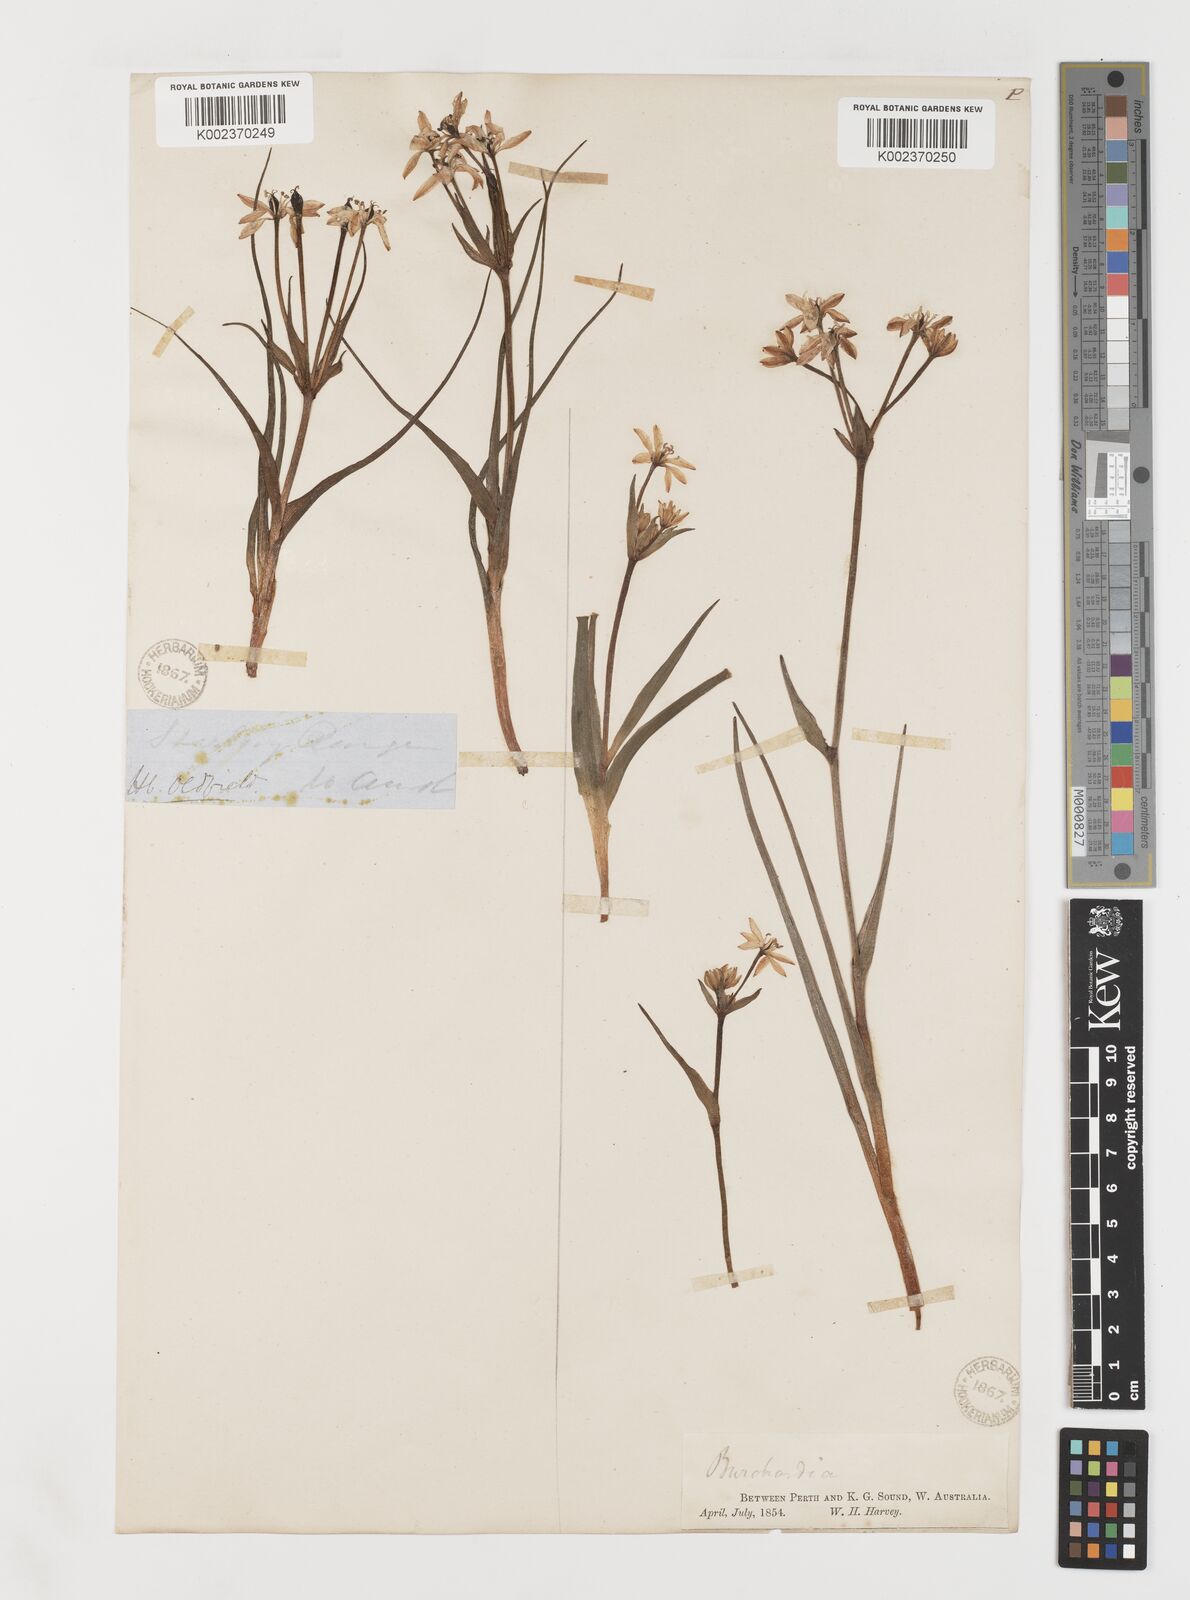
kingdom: Plantae
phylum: Tracheophyta
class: Liliopsida
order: Liliales
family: Colchicaceae
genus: Burchardia
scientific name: Burchardia
